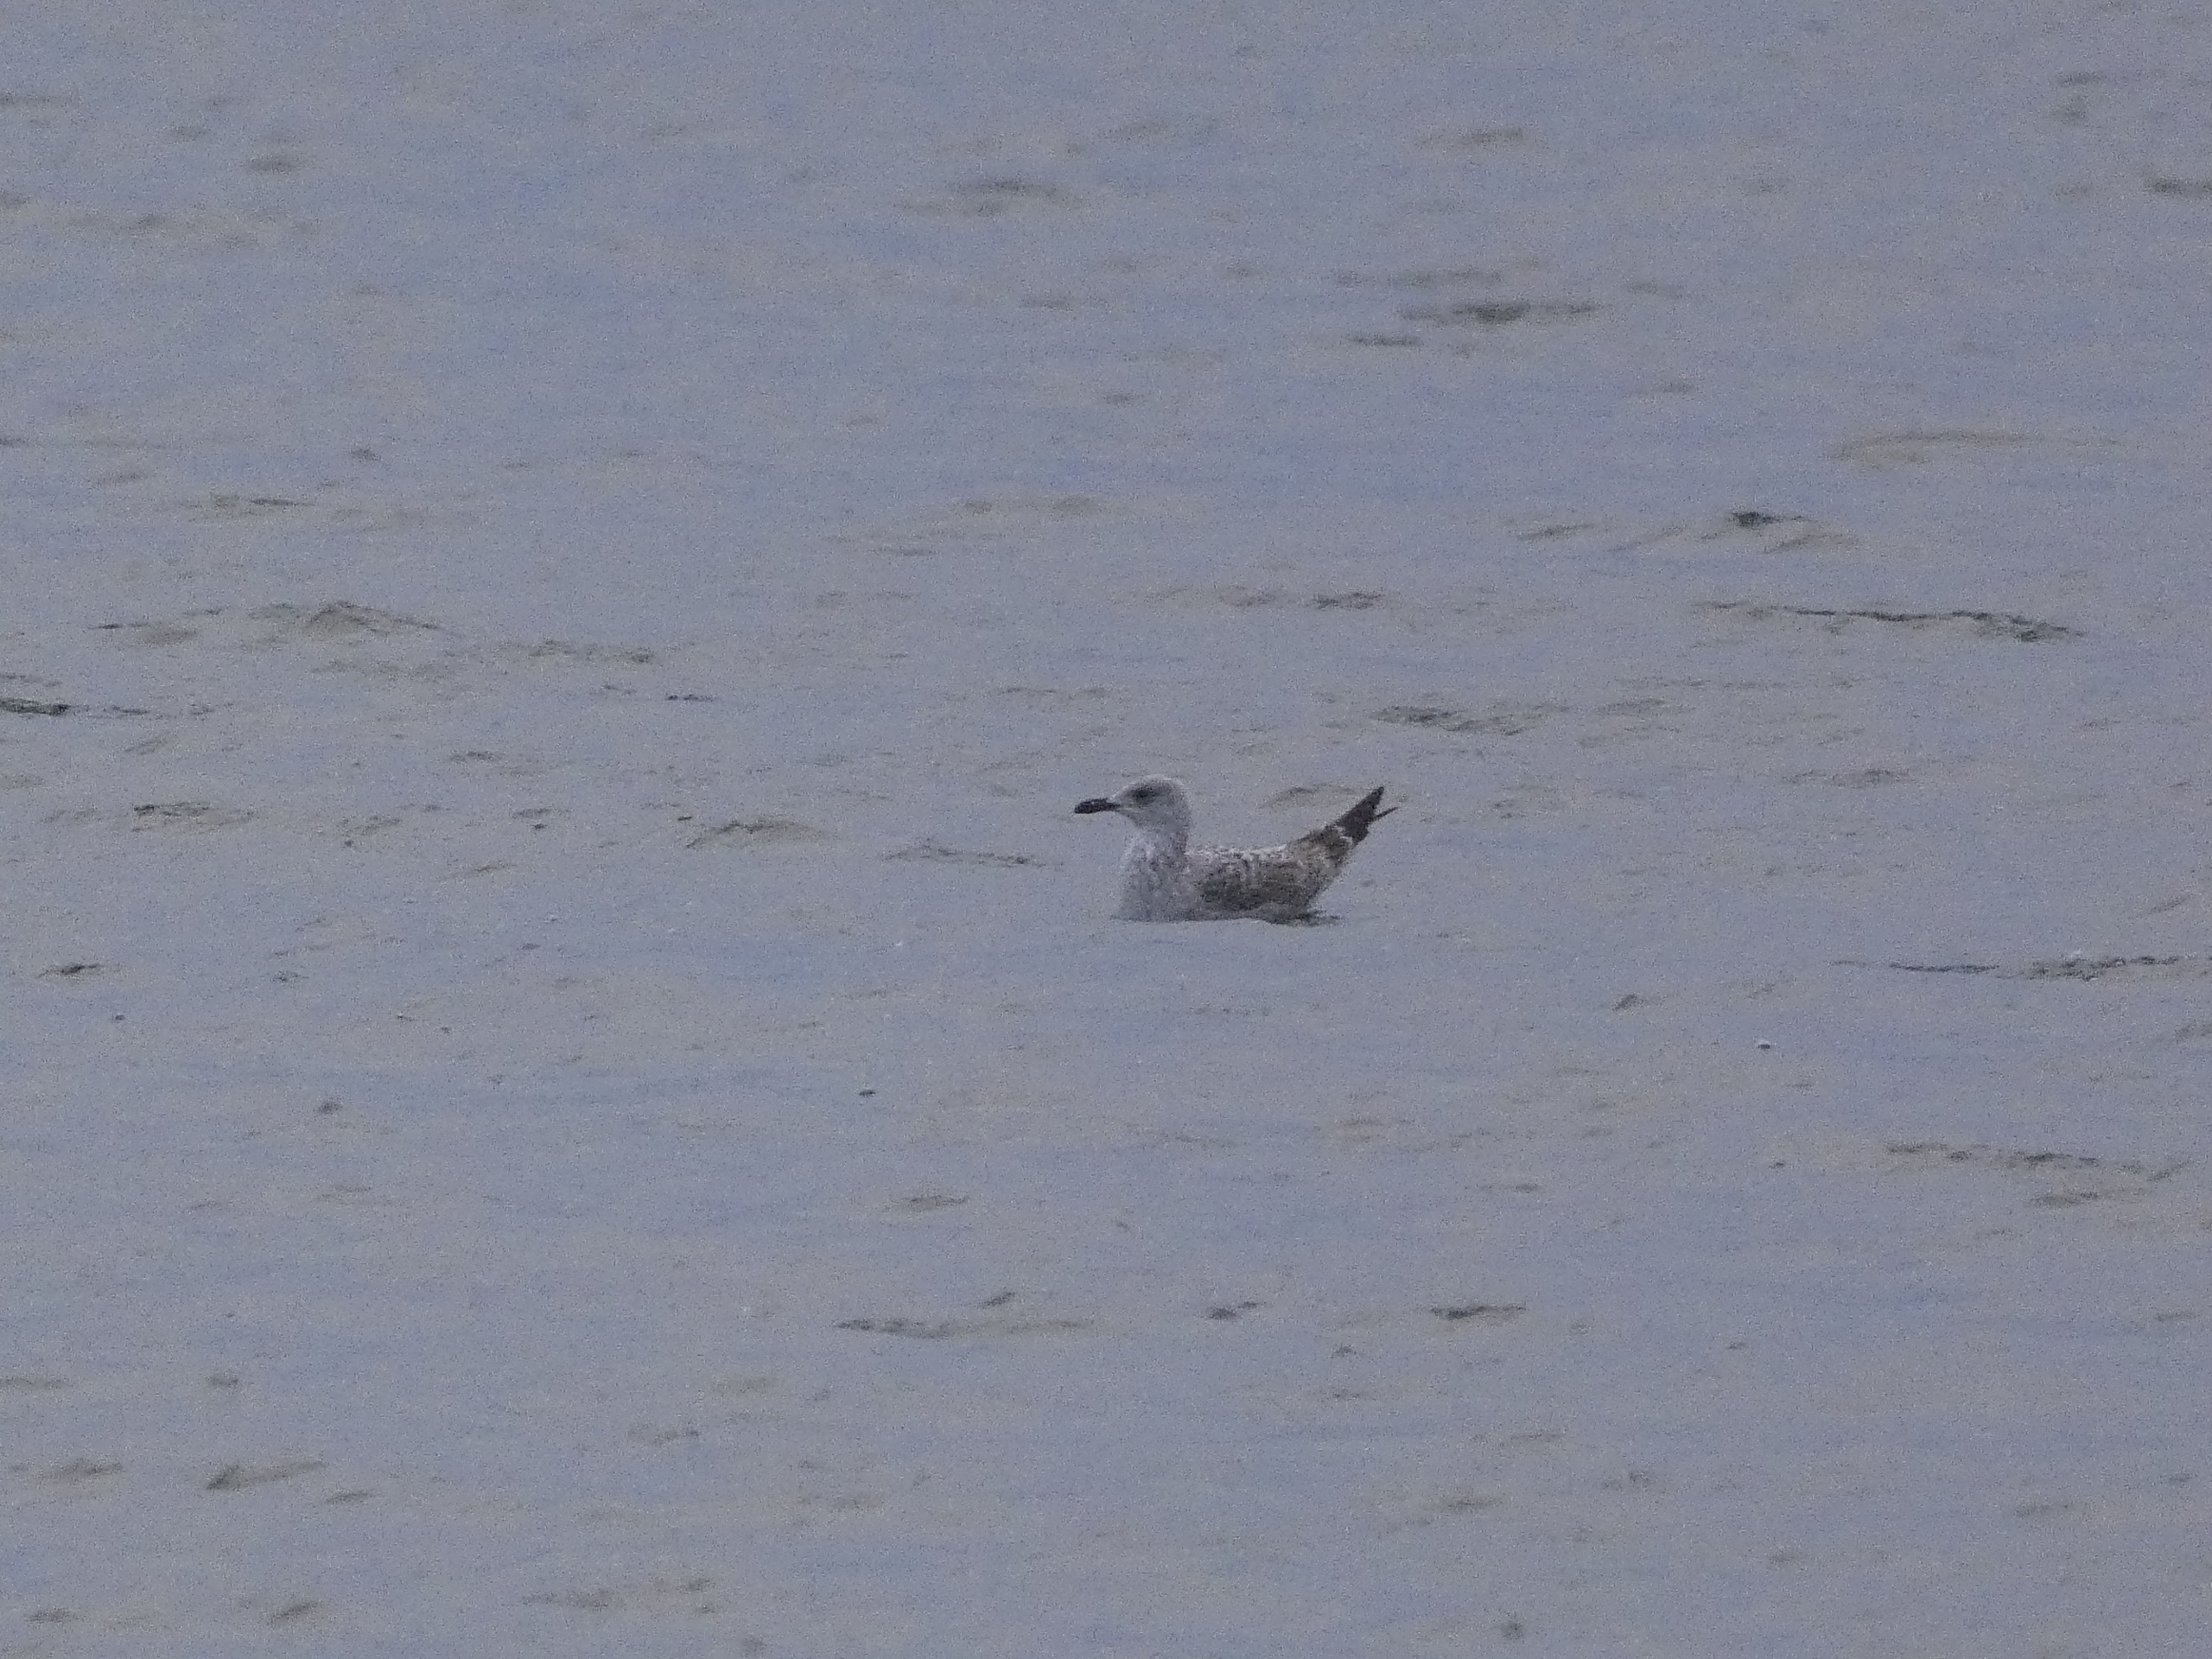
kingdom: Animalia
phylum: Chordata
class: Aves
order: Charadriiformes
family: Laridae
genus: Larus
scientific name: Larus argentatus
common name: Sølvmåge
